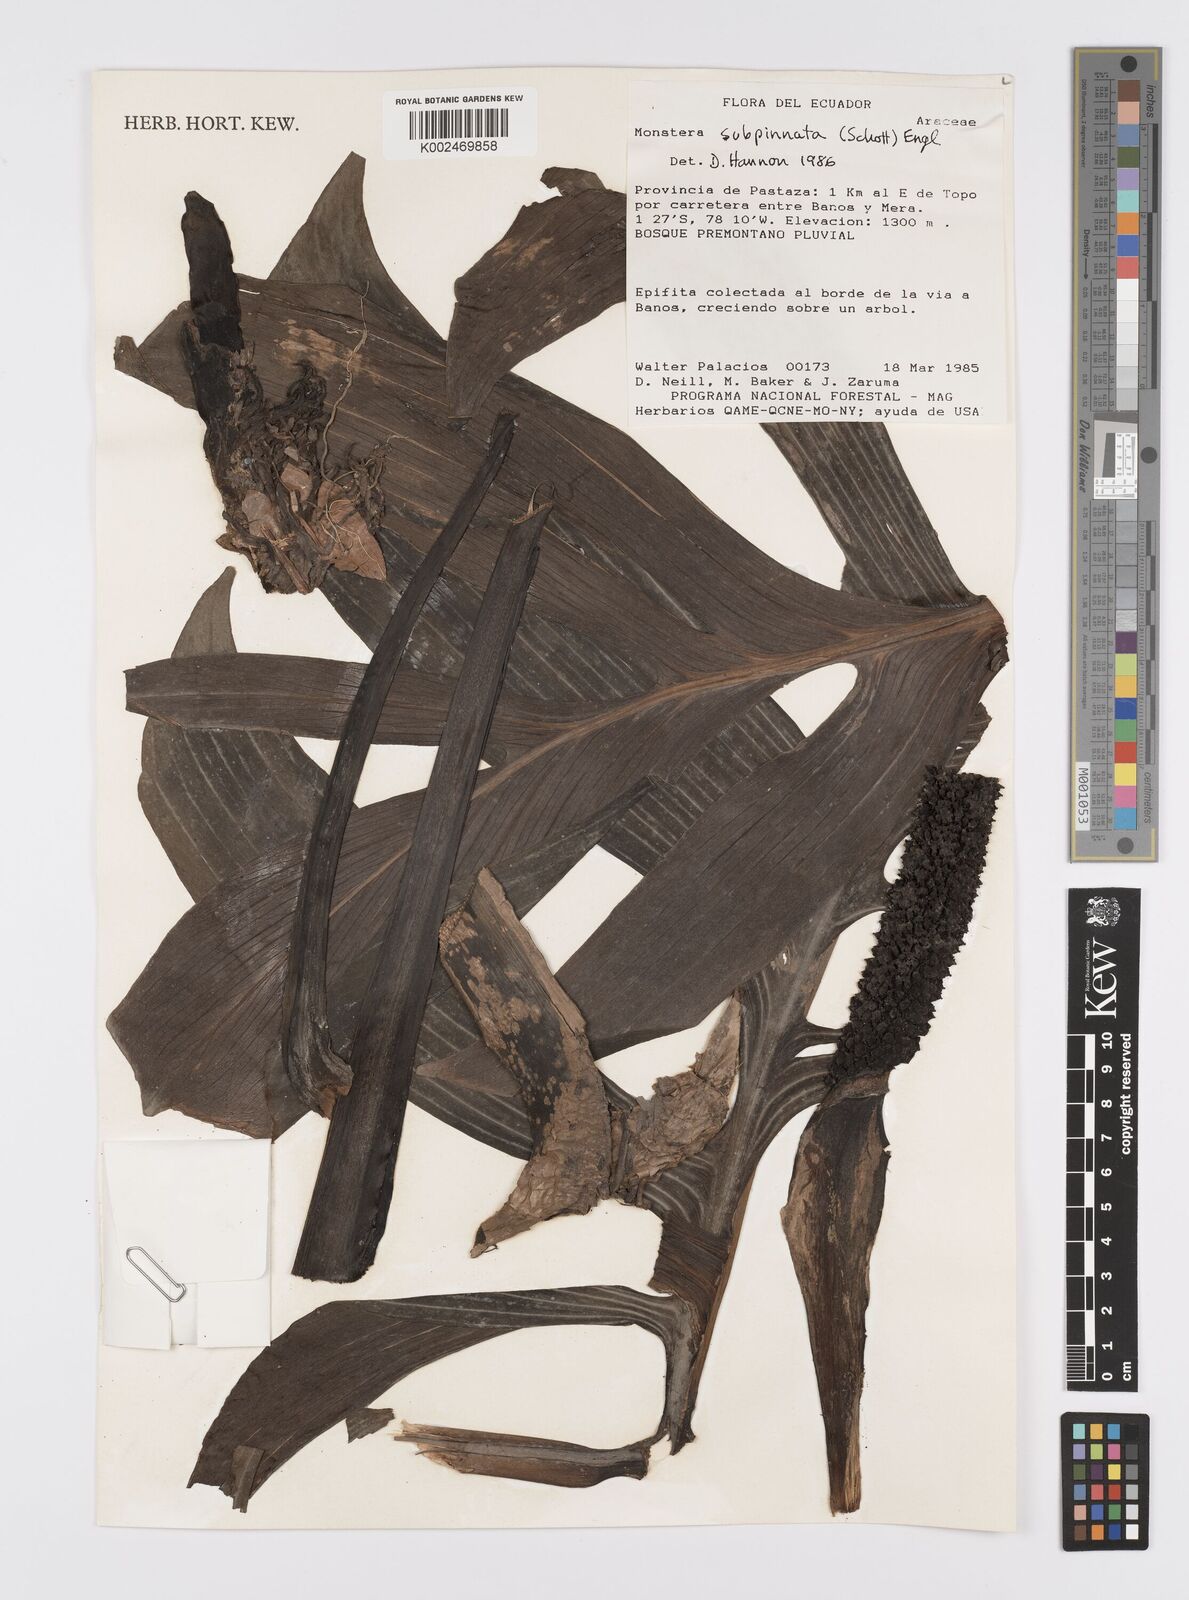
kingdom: Plantae
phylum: Tracheophyta
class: Liliopsida
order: Alismatales
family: Araceae
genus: Monstera
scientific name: Monstera subpinnata
